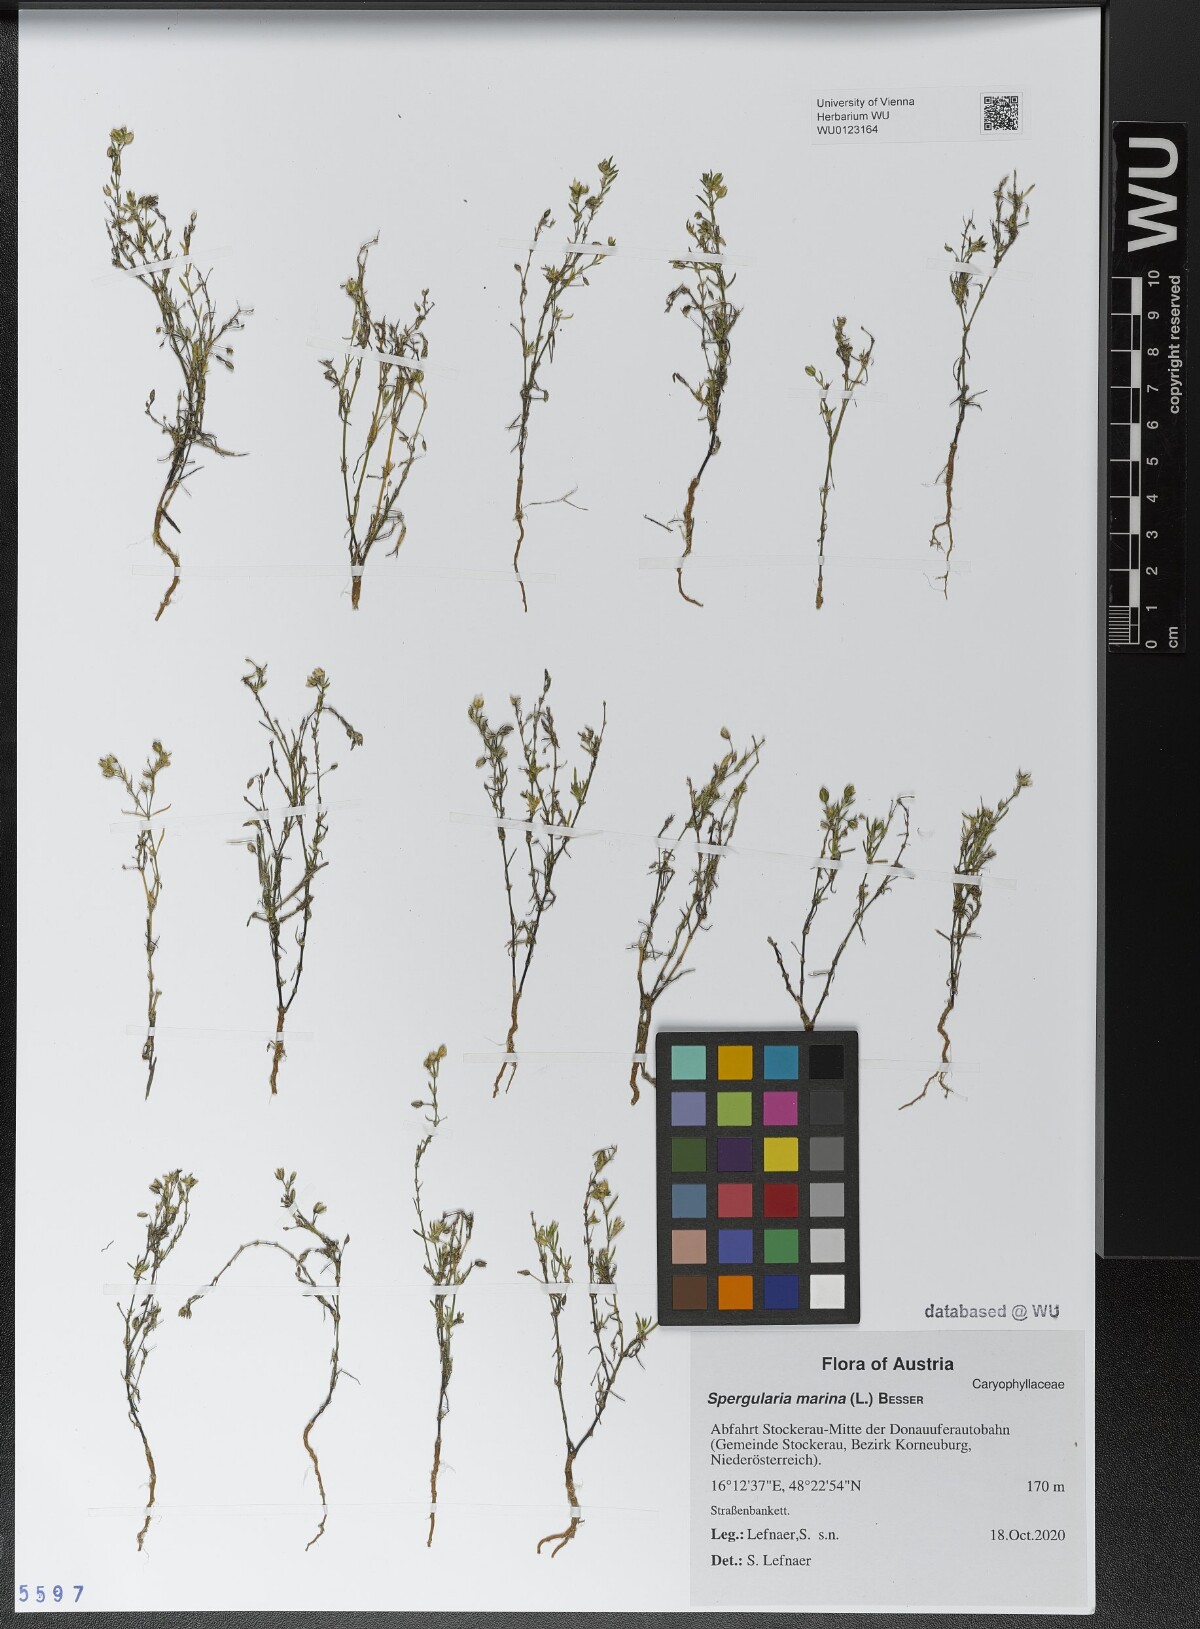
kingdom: Plantae
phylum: Tracheophyta
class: Magnoliopsida
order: Caryophyllales
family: Caryophyllaceae
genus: Spergularia
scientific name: Spergularia marina
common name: Lesser sea-spurrey
